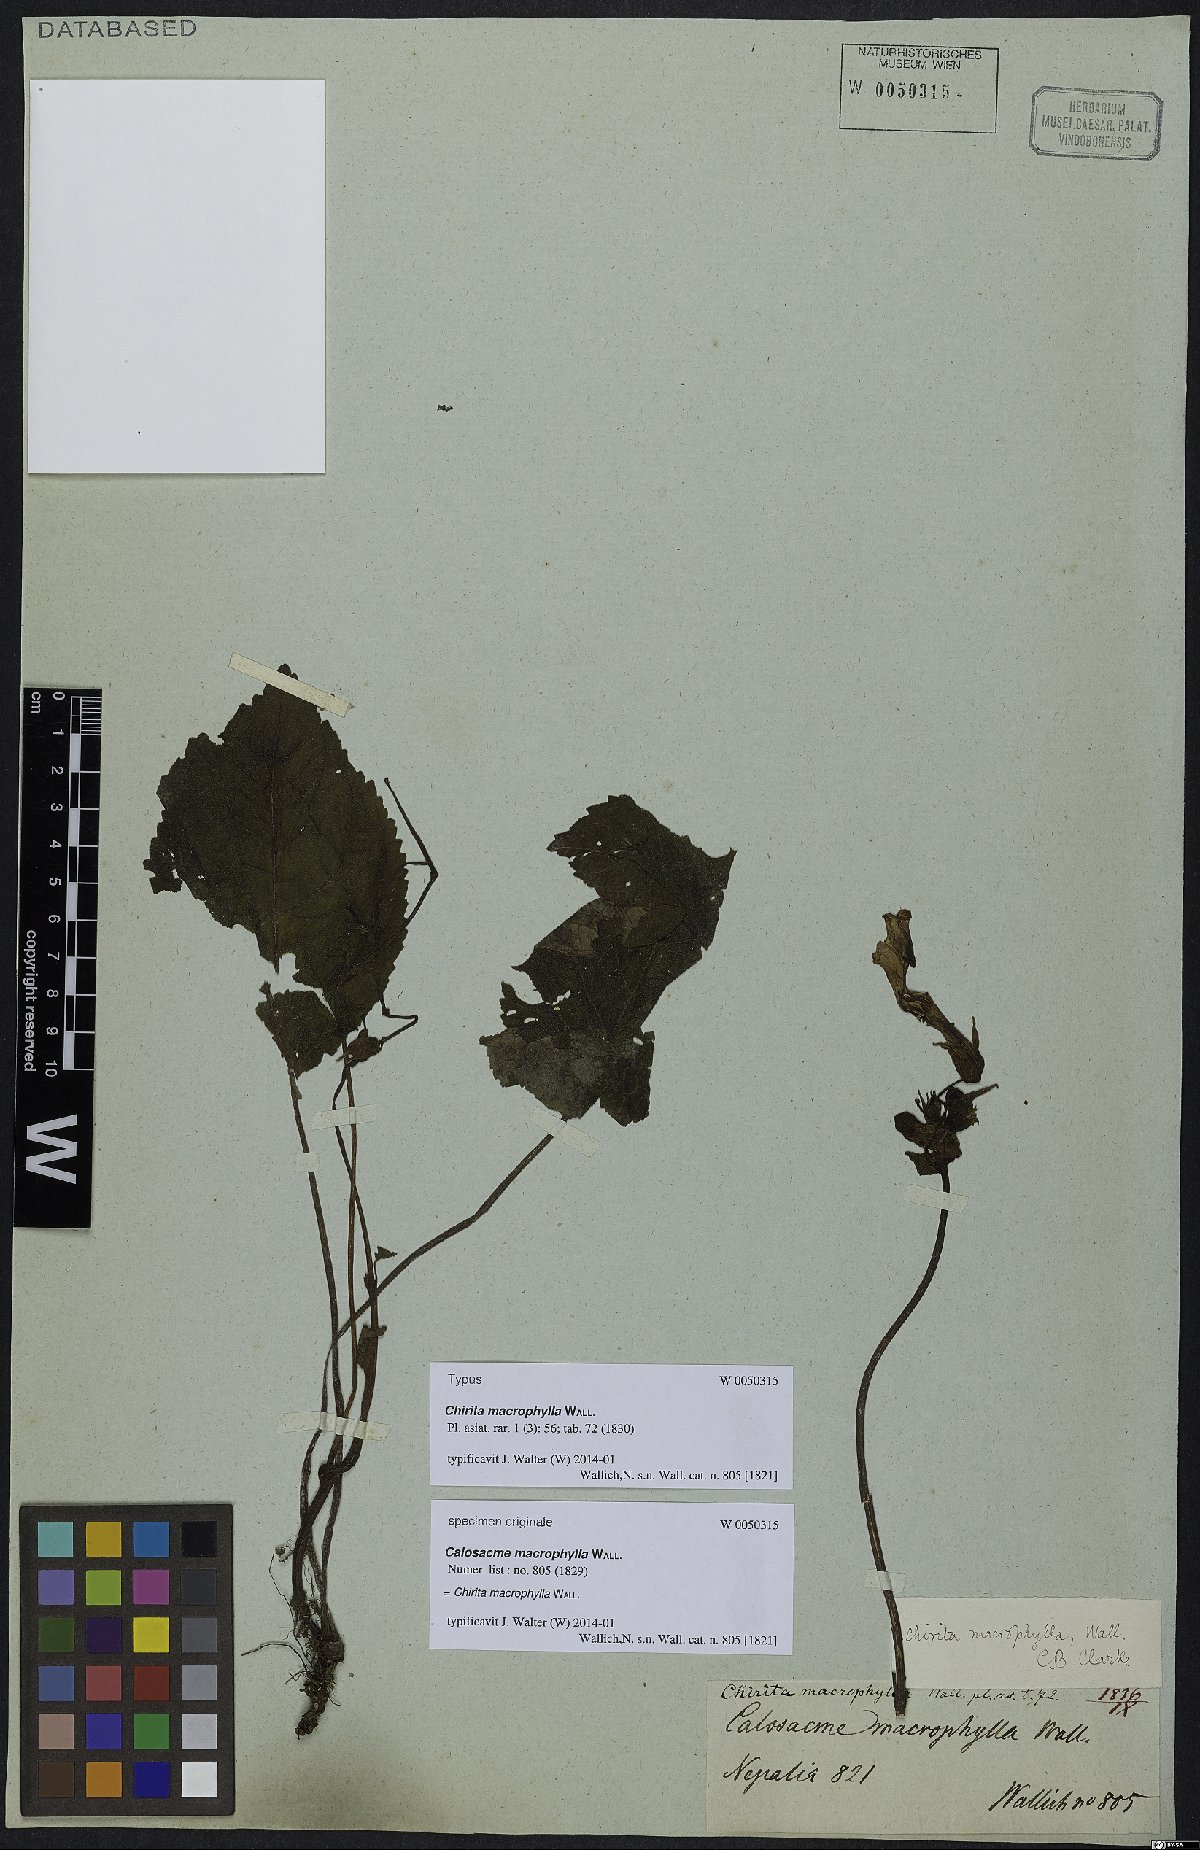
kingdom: Plantae
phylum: Tracheophyta
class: Magnoliopsida
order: Lamiales
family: Gesneriaceae
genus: Henckelia
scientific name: Henckelia grandifolia
